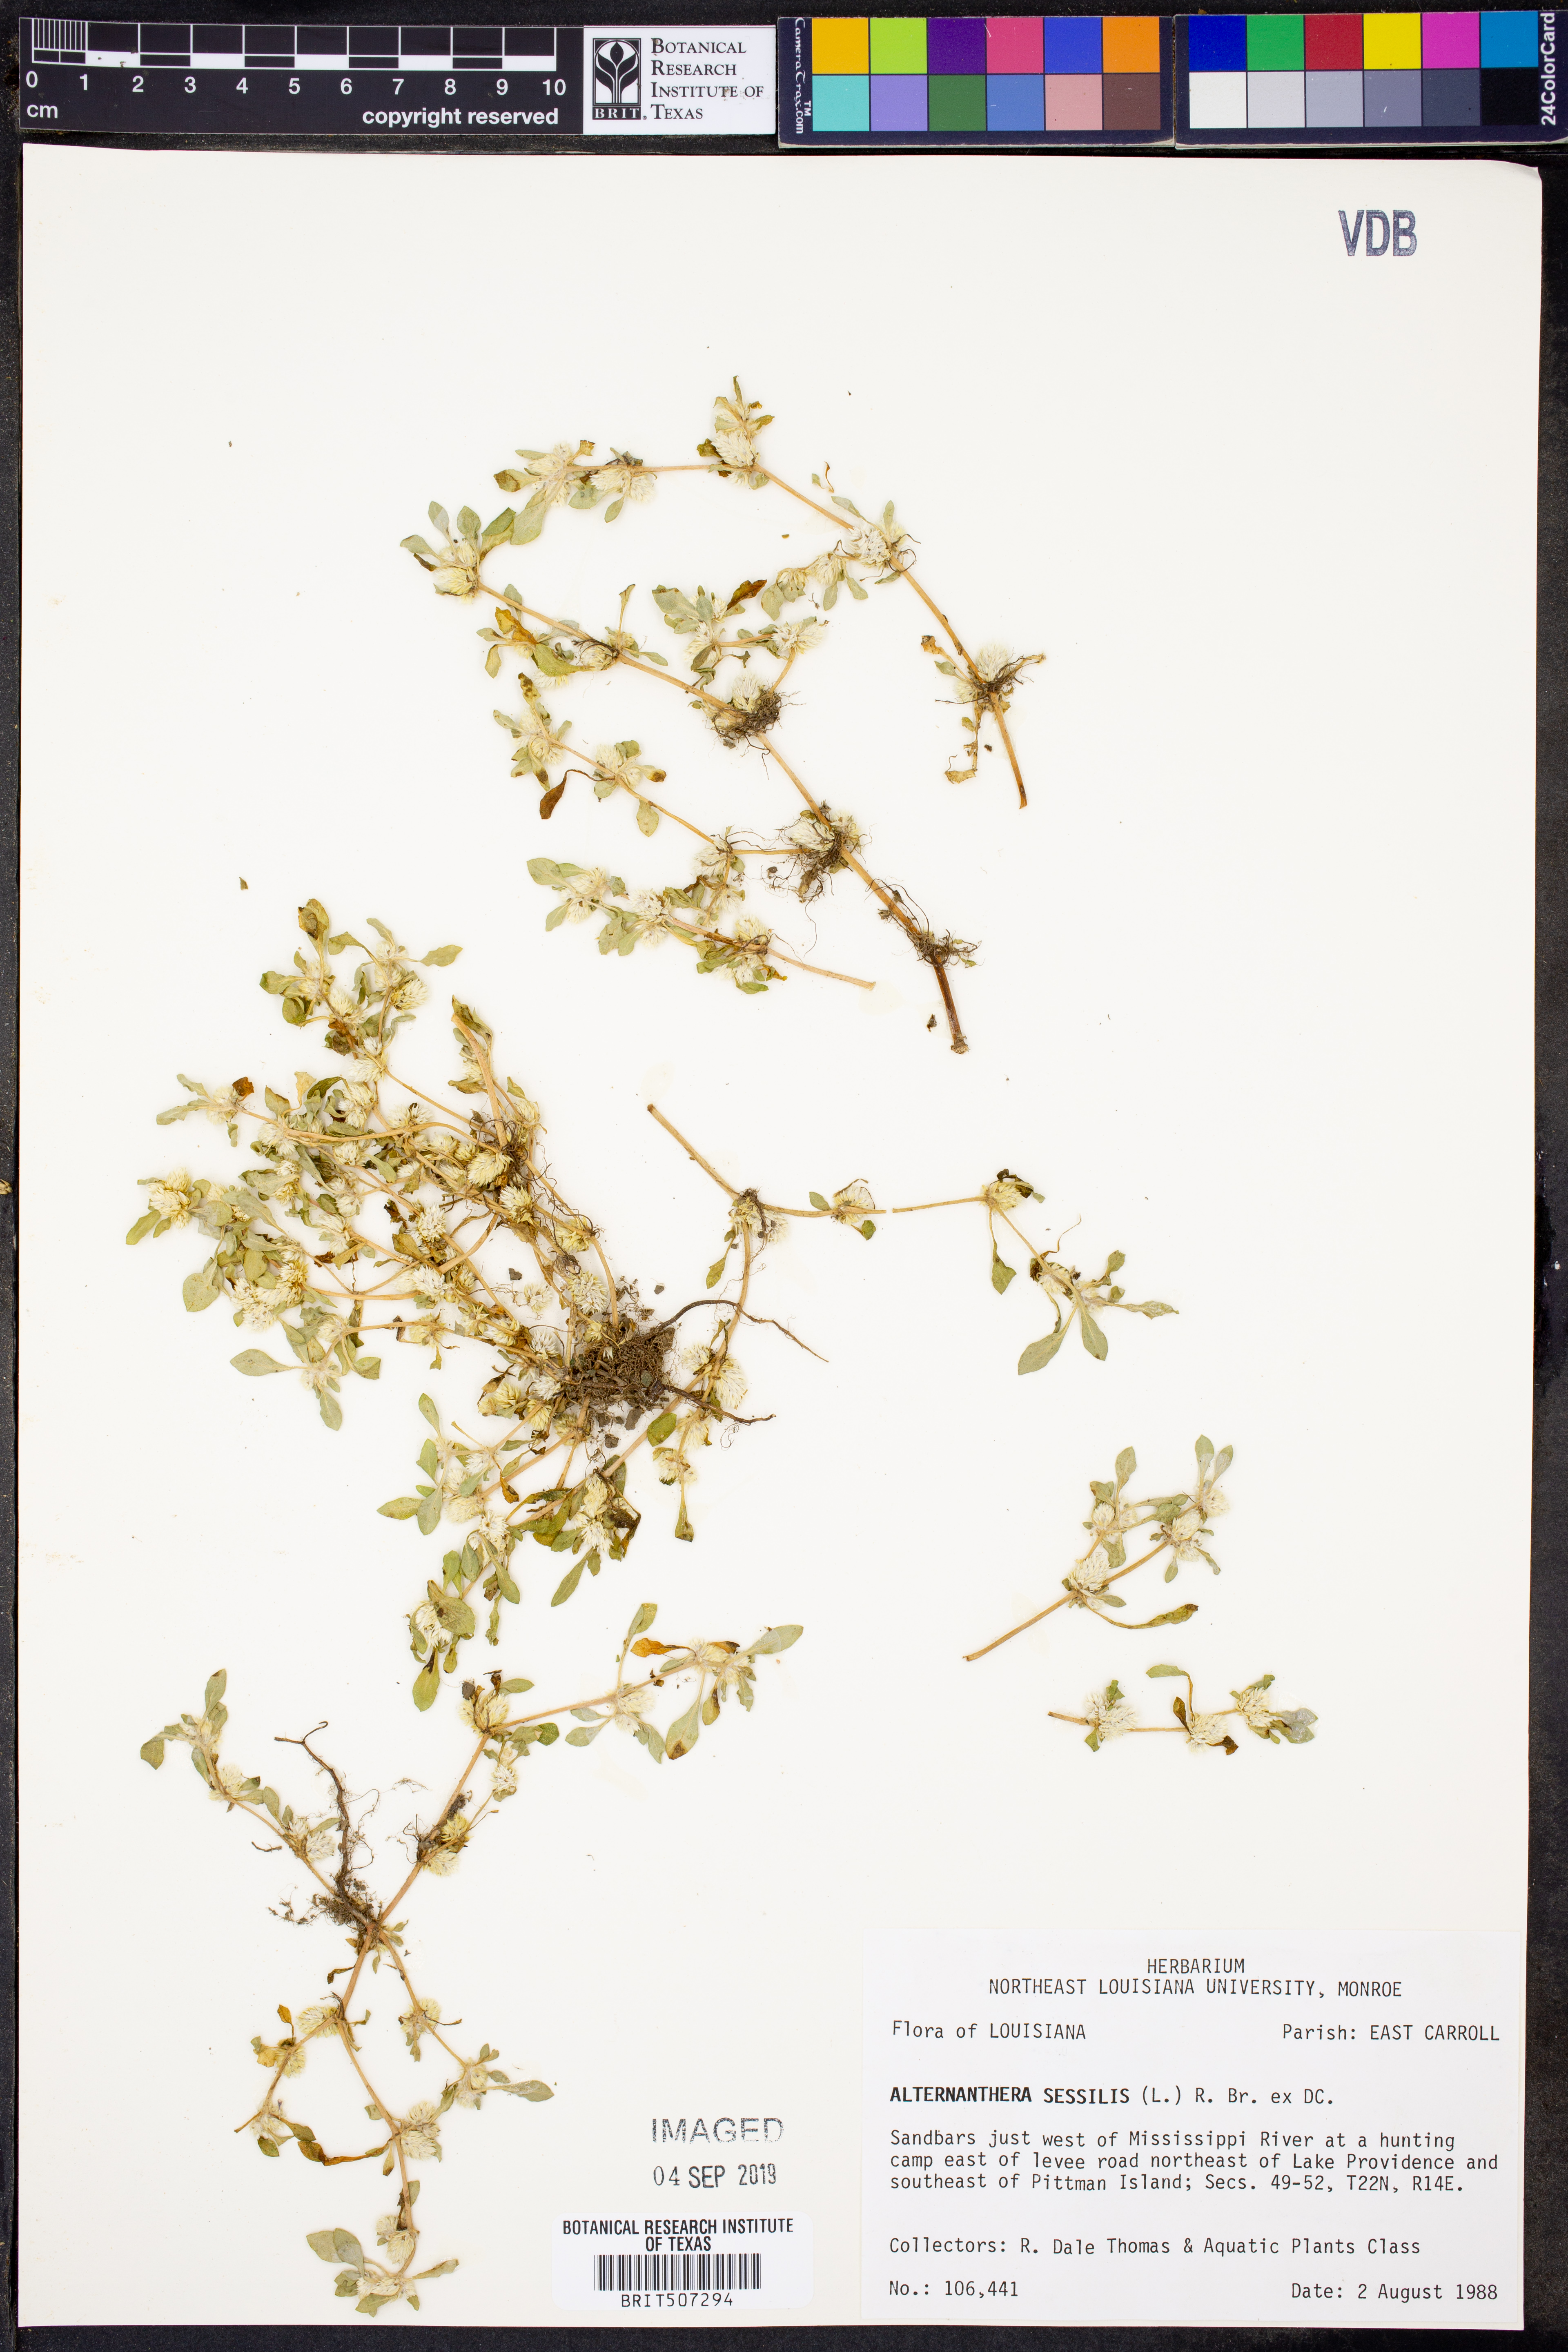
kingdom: Plantae
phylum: Tracheophyta
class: Magnoliopsida
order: Caryophyllales
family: Amaranthaceae
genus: Alternanthera
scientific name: Alternanthera sessilis
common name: Sessile joyweed
